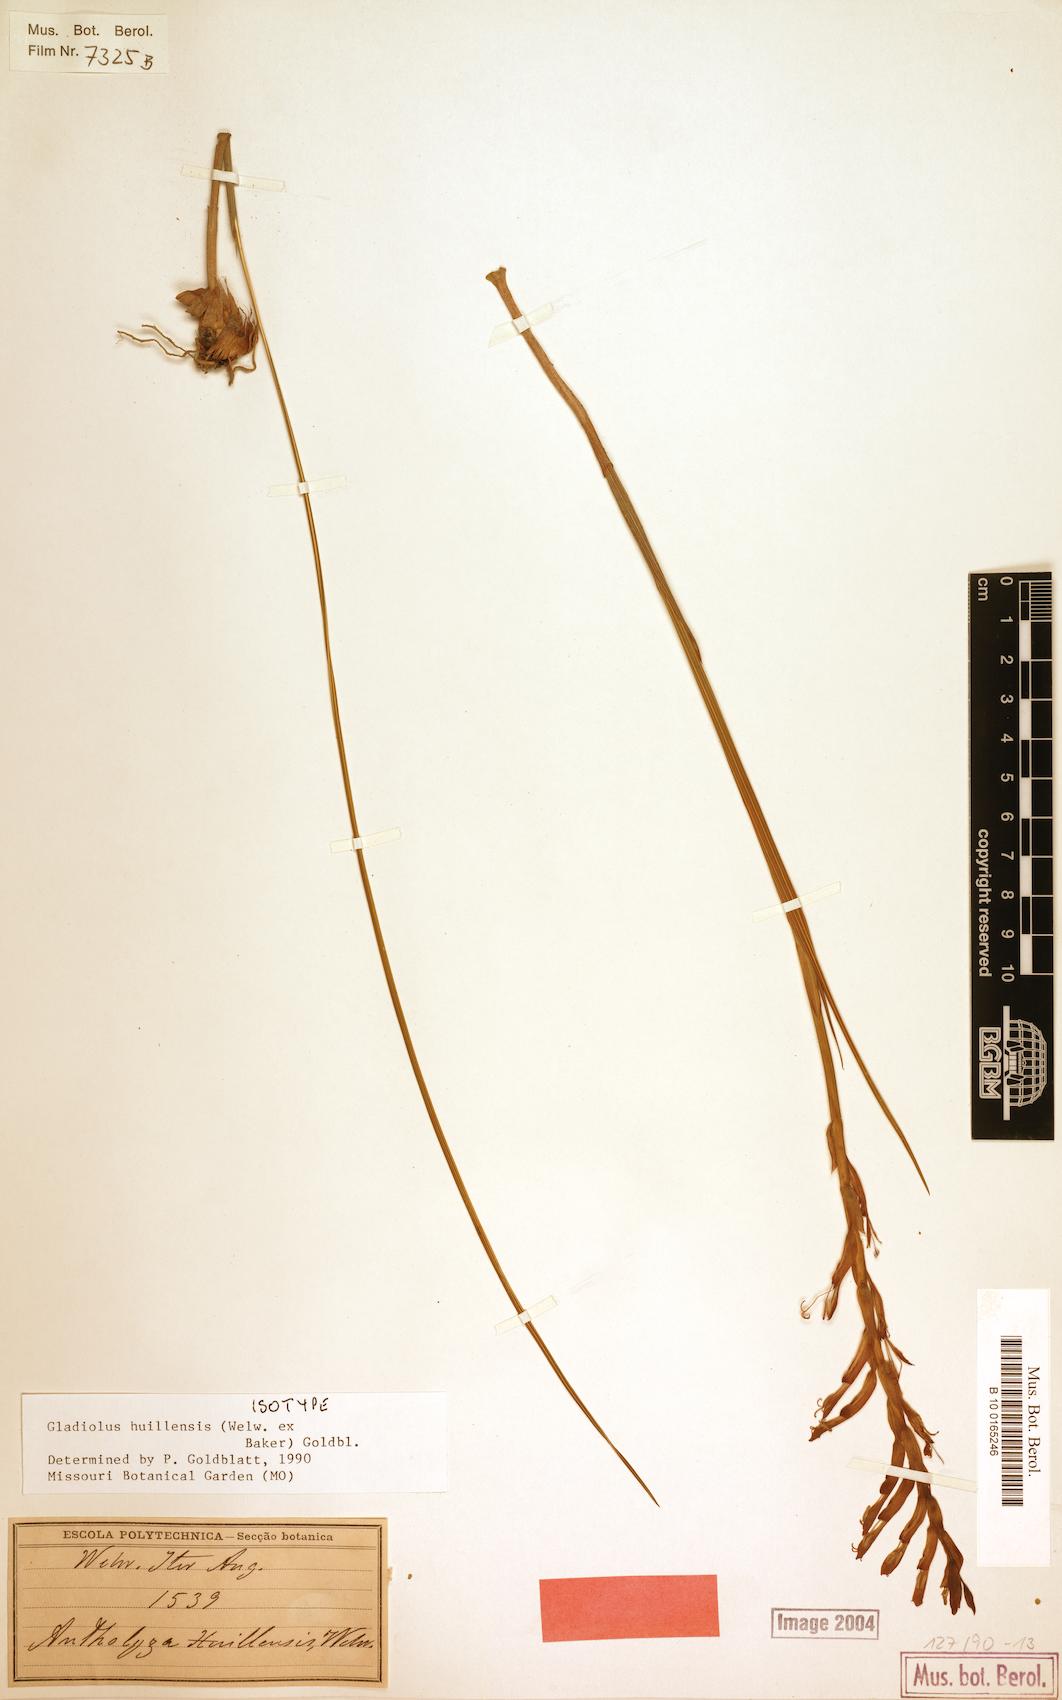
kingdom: Plantae
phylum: Tracheophyta
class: Liliopsida
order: Asparagales
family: Iridaceae
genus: Gladiolus
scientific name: Gladiolus huillensis
